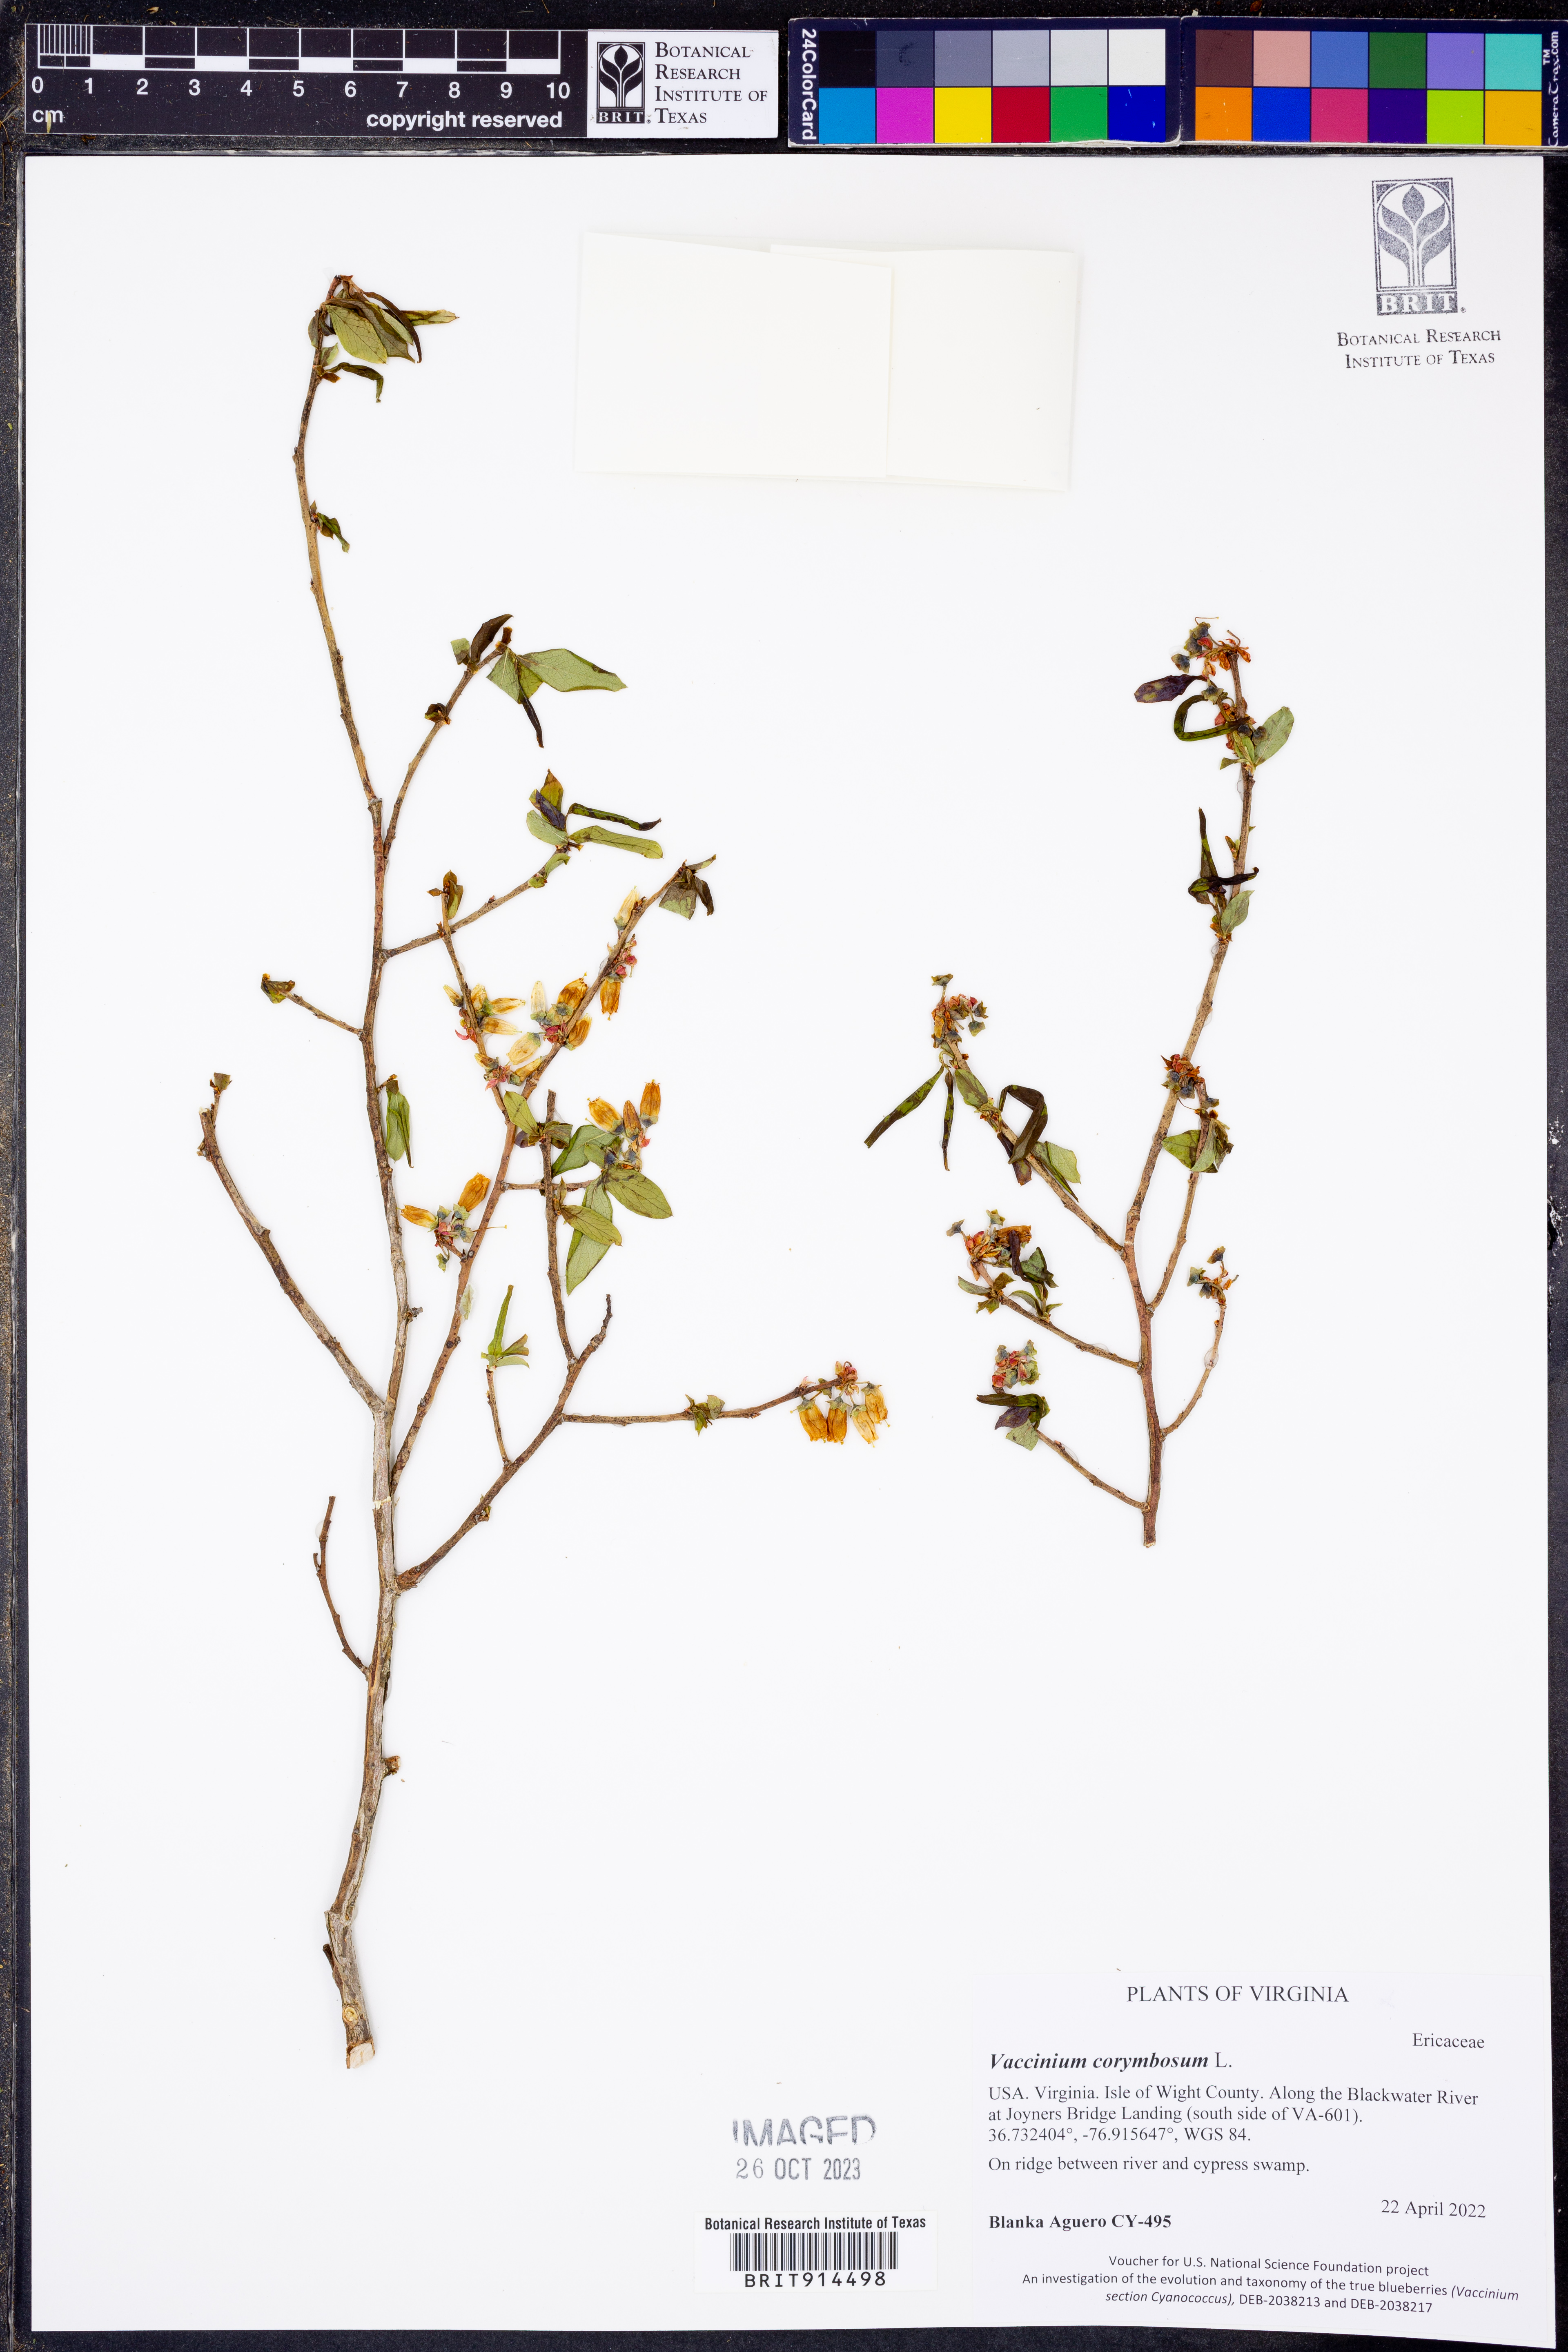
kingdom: Plantae
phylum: Tracheophyta
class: Magnoliopsida
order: Ericales
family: Ericaceae
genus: Vaccinium
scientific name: Vaccinium corymbosum
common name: Blueberry
